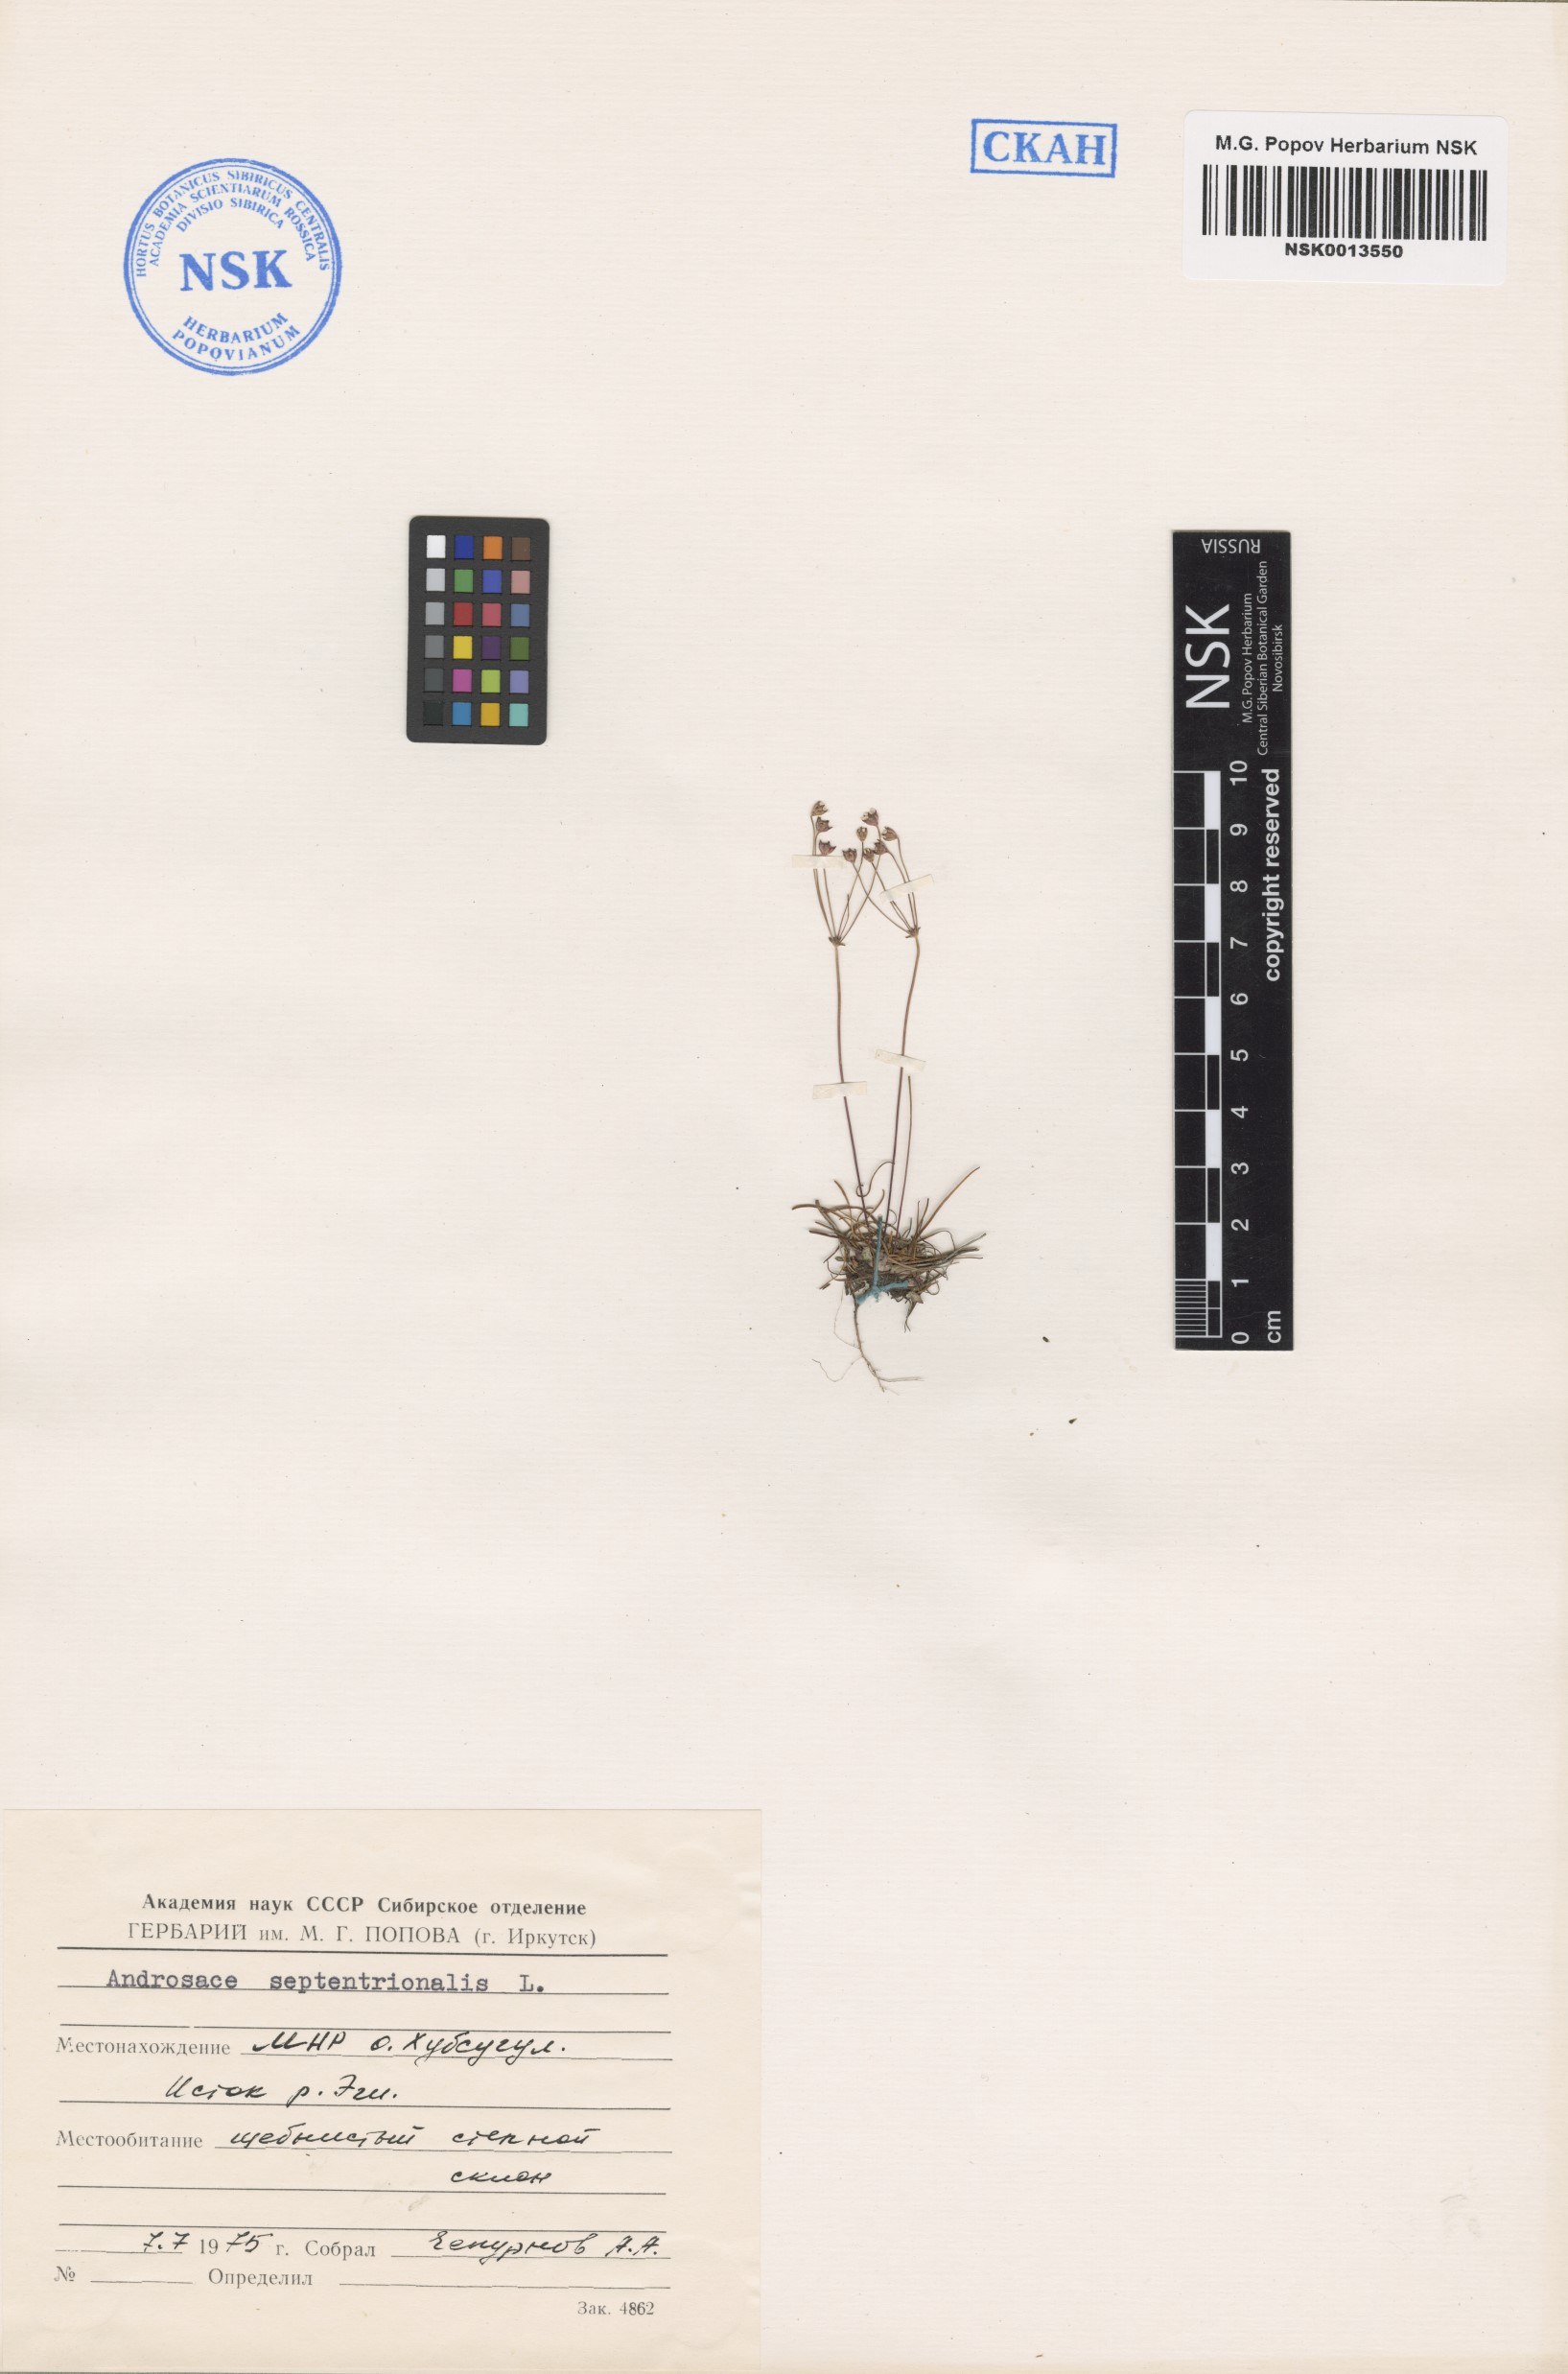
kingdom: Plantae
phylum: Tracheophyta
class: Magnoliopsida
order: Ericales
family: Primulaceae
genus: Androsace
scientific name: Androsace septentrionalis
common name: Hairy northern fairy-candelabra
